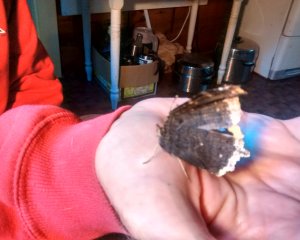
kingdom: Animalia
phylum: Arthropoda
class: Insecta
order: Lepidoptera
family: Nymphalidae
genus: Nymphalis
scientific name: Nymphalis antiopa
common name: Mourning Cloak
